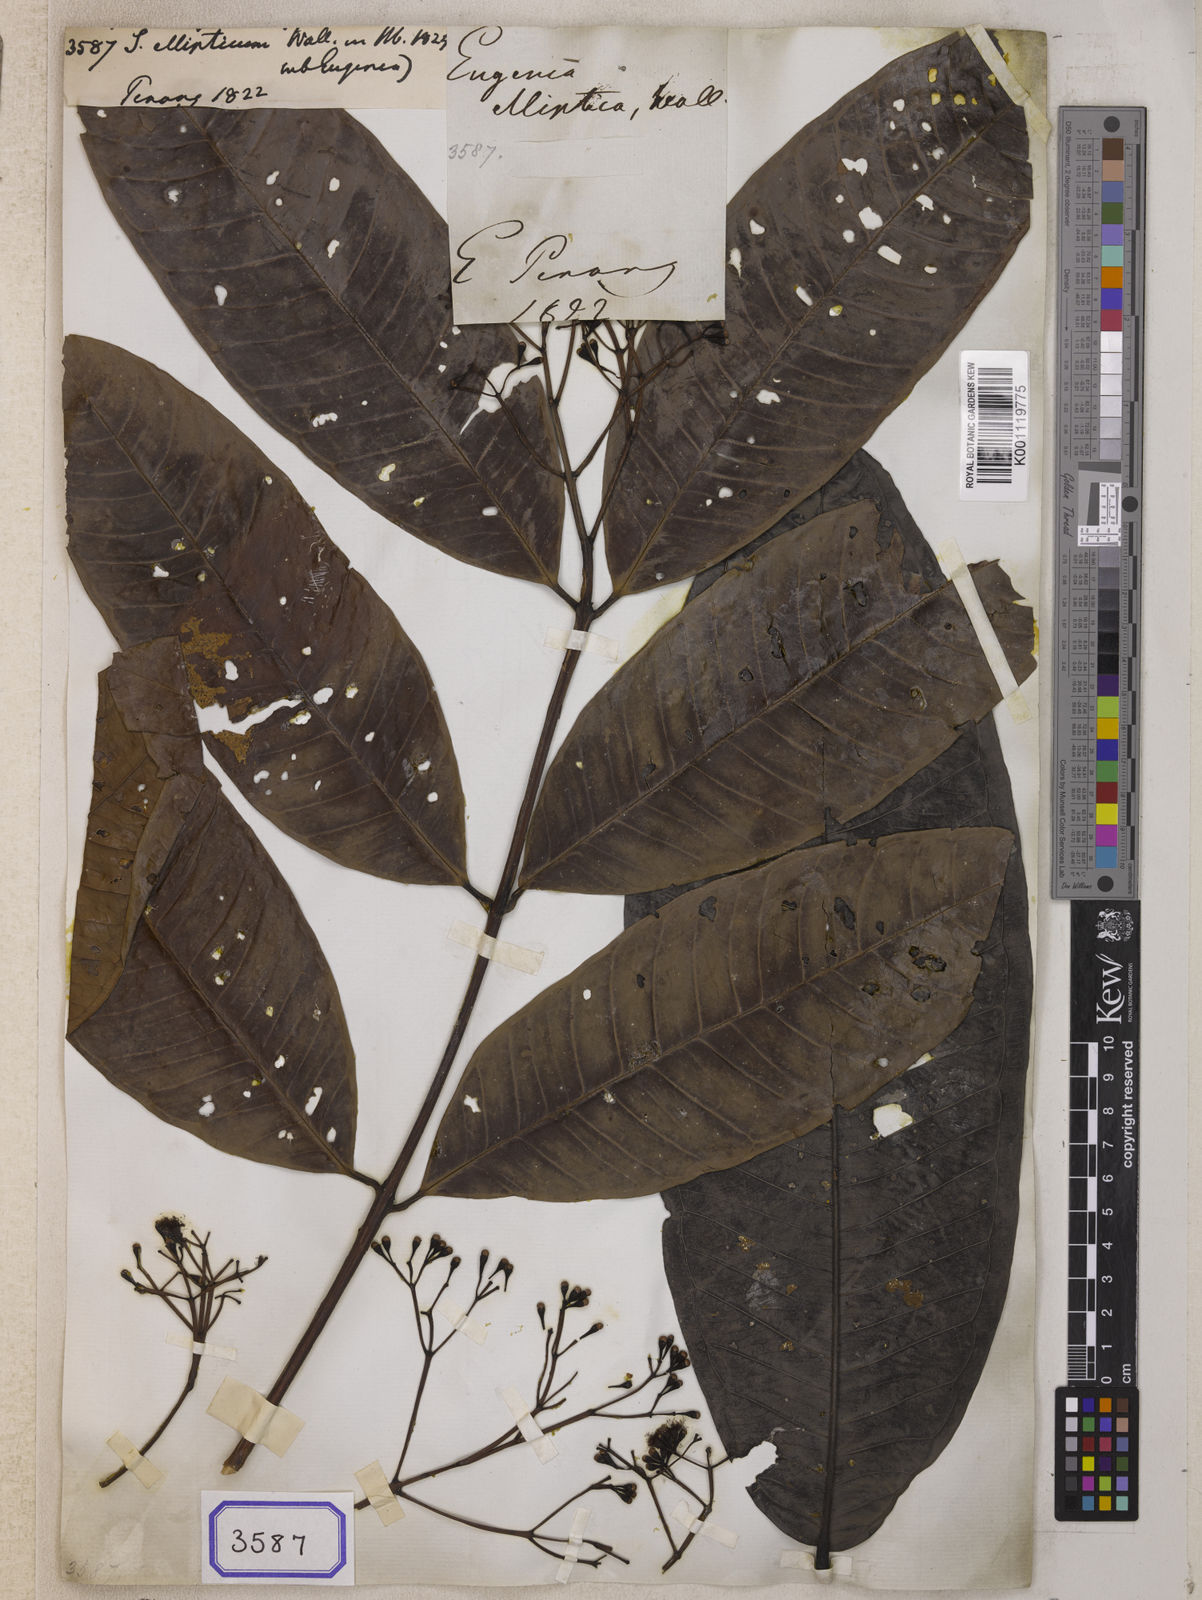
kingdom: Plantae
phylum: Tracheophyta
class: Magnoliopsida
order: Myrtales
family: Myrtaceae
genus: Syzygium
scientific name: Syzygium
